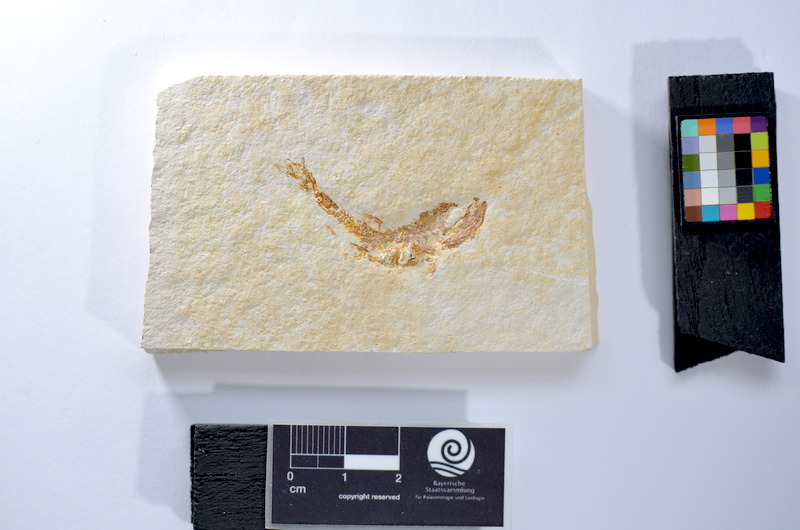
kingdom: Animalia
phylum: Chordata
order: Salmoniformes
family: Orthogonikleithridae
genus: Leptolepides
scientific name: Leptolepides
